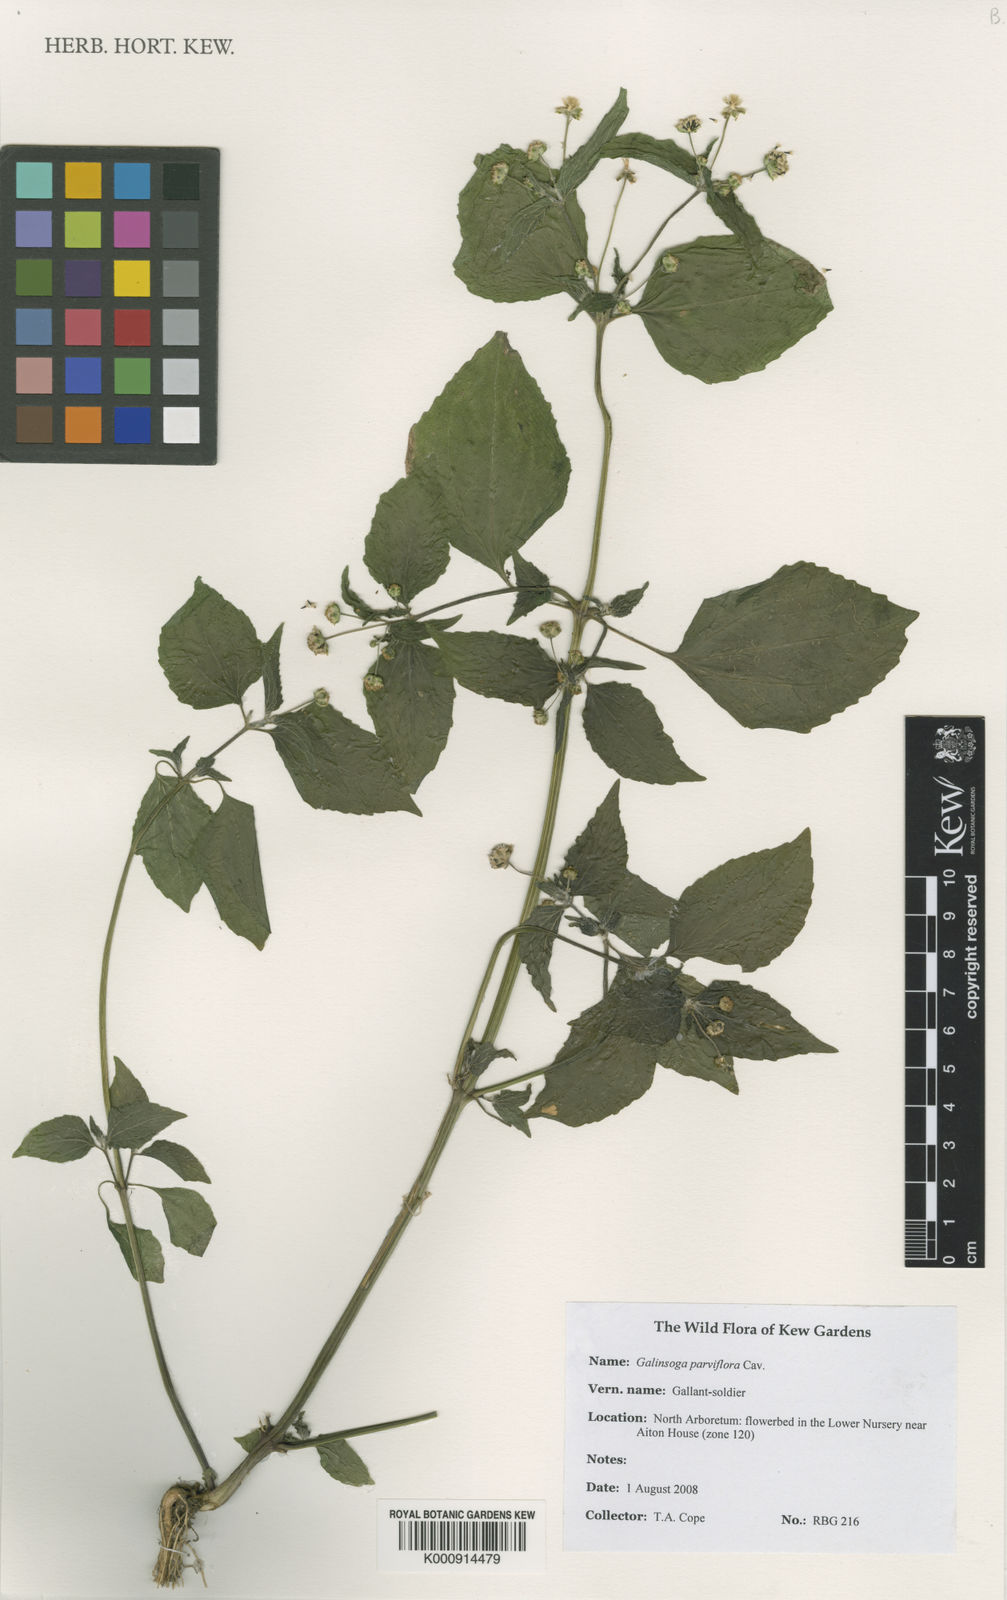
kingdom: Plantae
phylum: Tracheophyta
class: Magnoliopsida
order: Asterales
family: Asteraceae
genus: Galinsoga
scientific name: Galinsoga parviflora
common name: Gallant soldier
